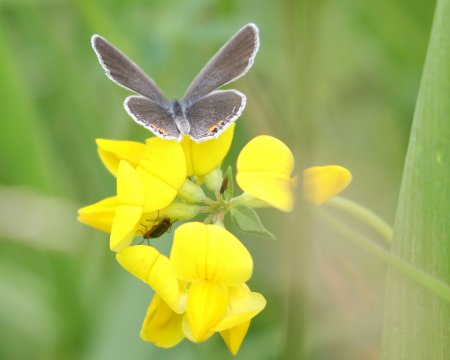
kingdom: Animalia
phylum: Arthropoda
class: Insecta
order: Lepidoptera
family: Lycaenidae
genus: Elkalyce
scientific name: Elkalyce comyntas
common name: Eastern Tailed-Blue
